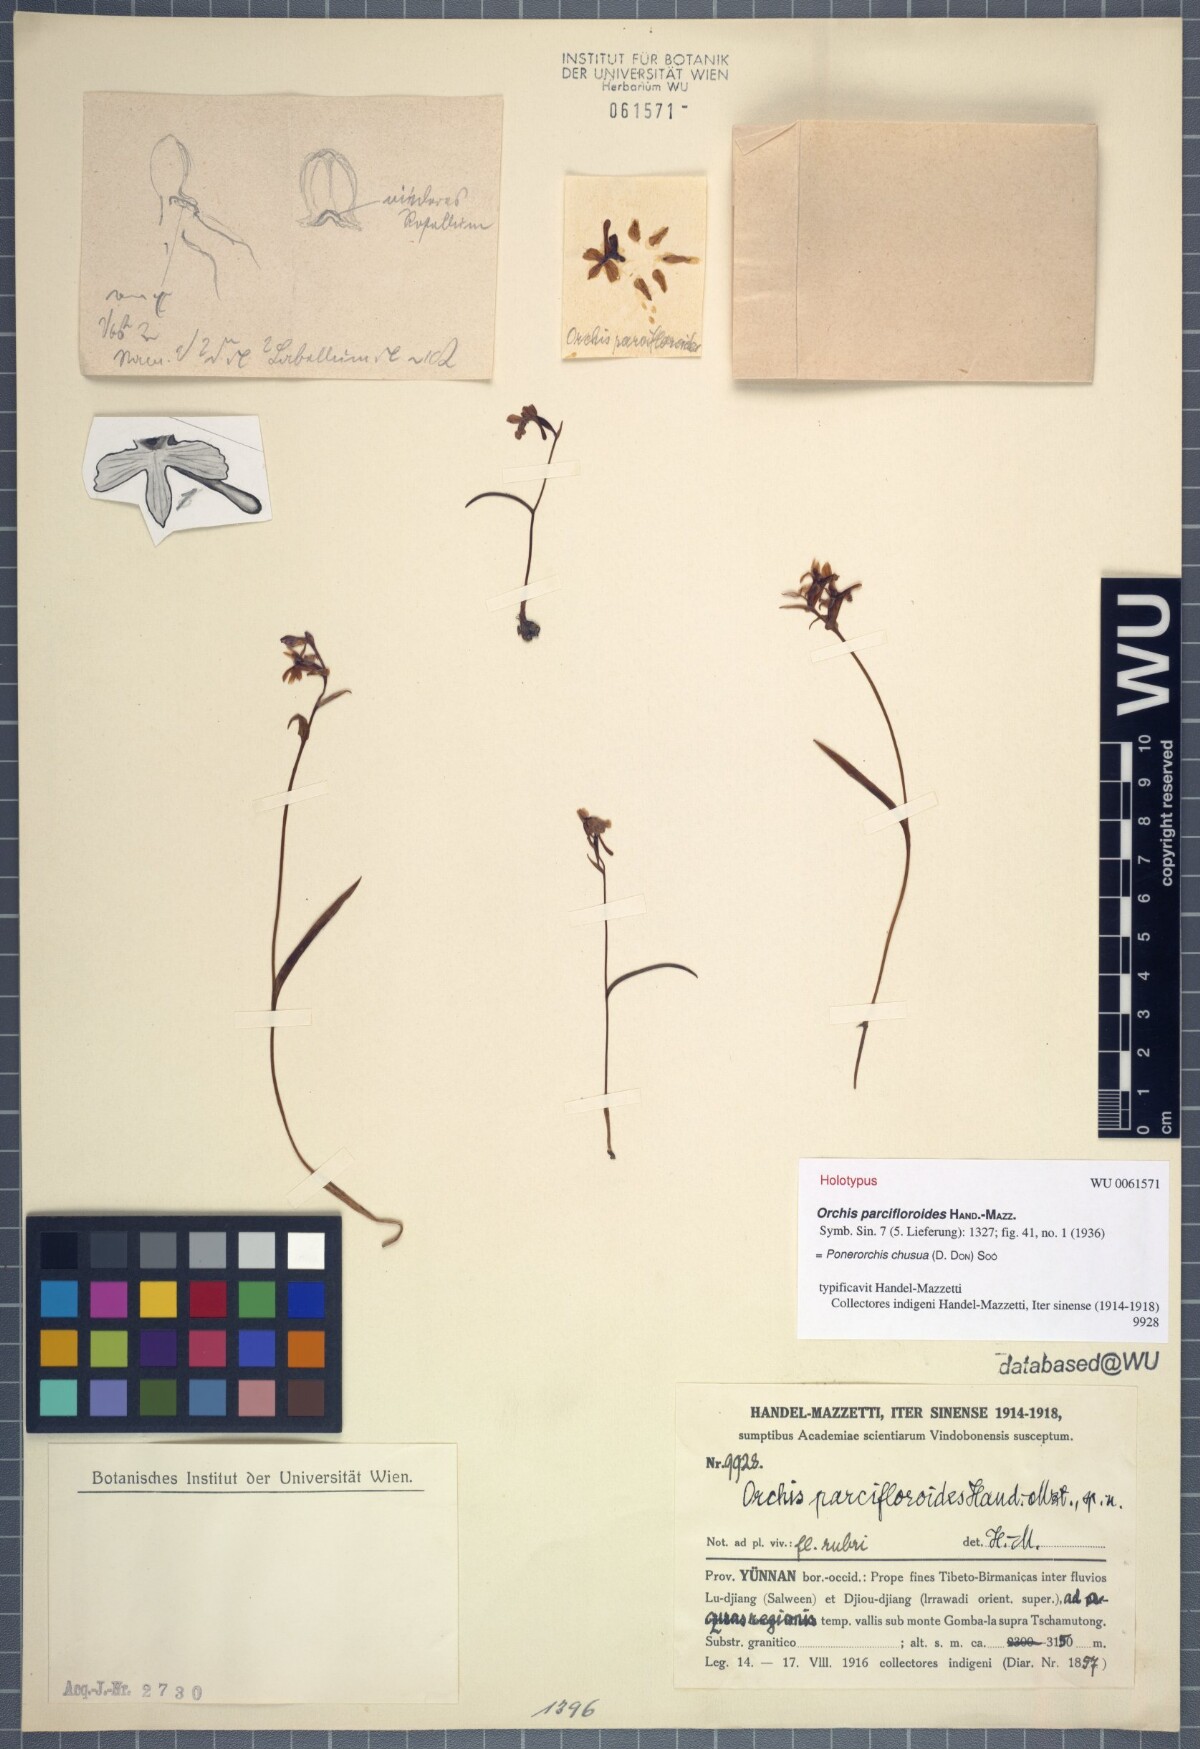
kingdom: Plantae
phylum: Tracheophyta
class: Liliopsida
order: Asparagales
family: Orchidaceae
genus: Hemipilia
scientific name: Hemipilia chusua
